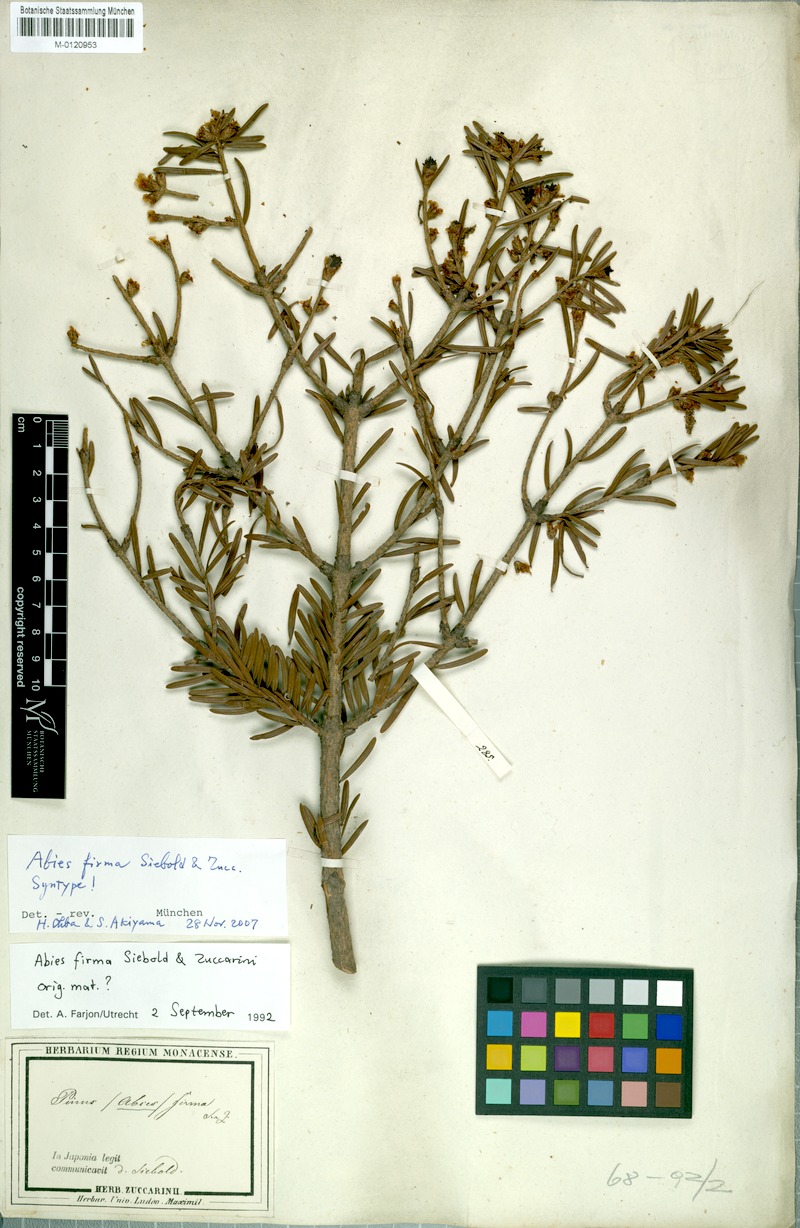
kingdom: Plantae
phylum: Tracheophyta
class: Pinopsida
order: Pinales
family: Pinaceae
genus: Abies
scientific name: Abies firma
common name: Momi fir
